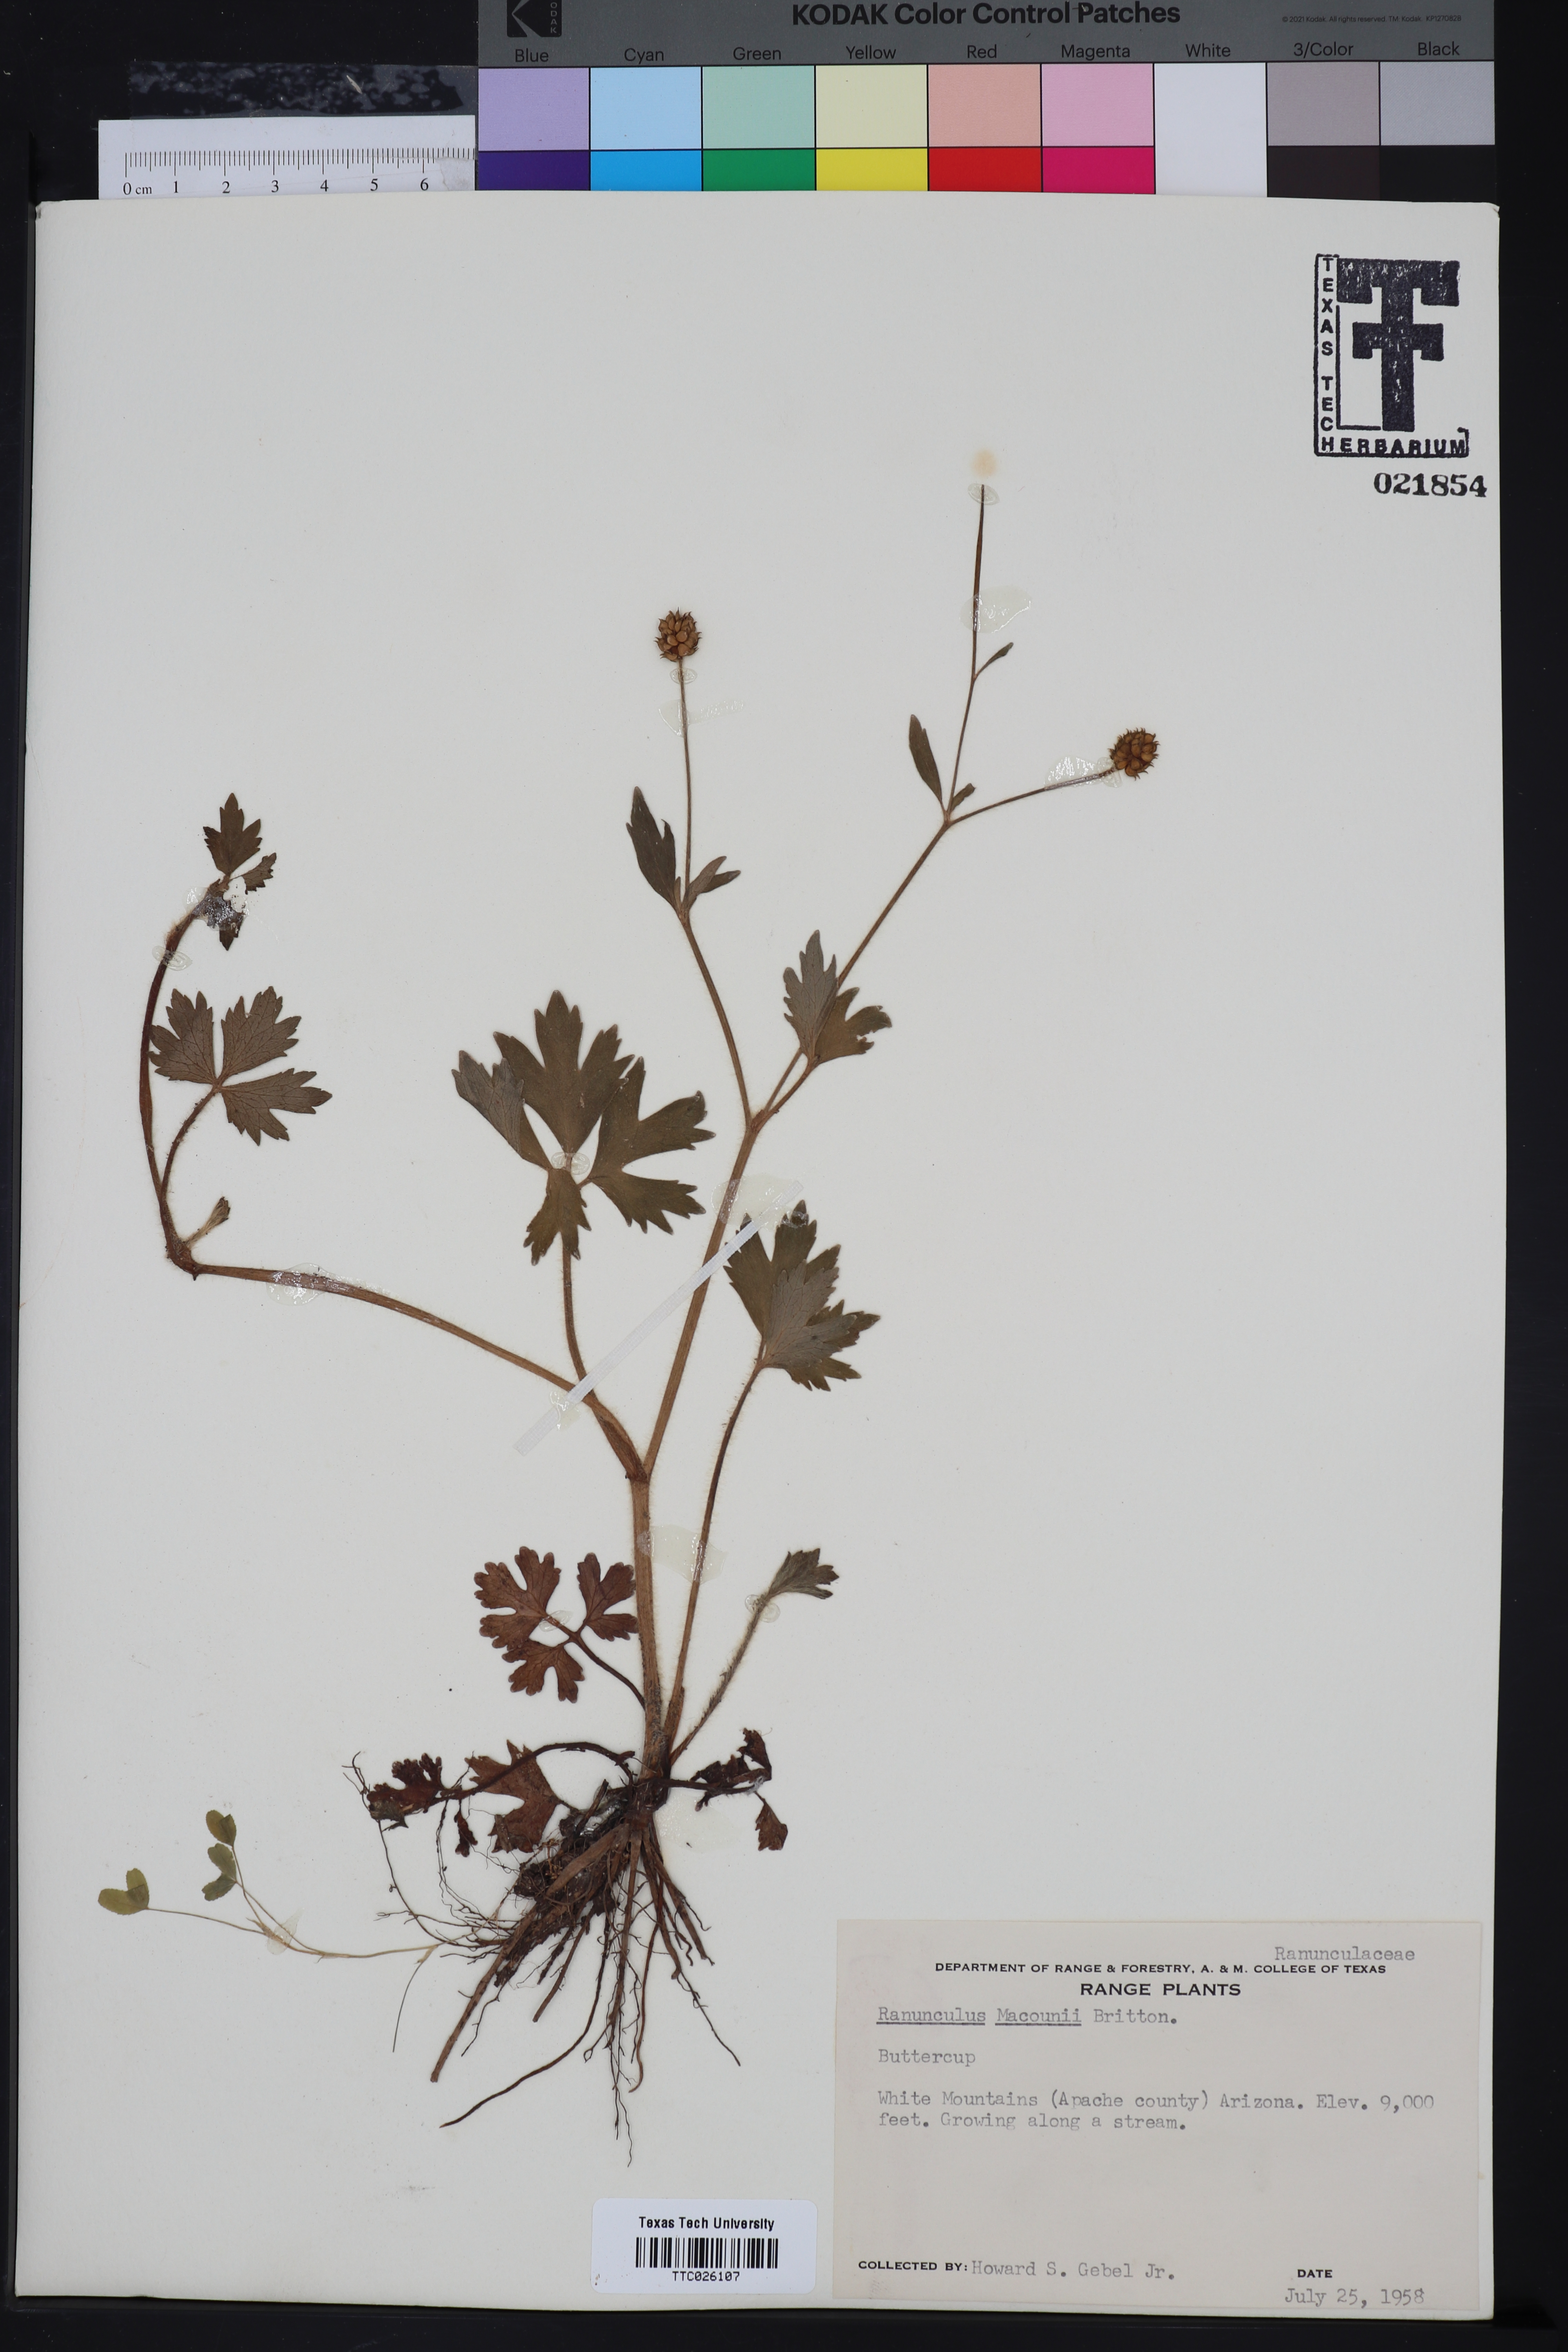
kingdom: Plantae
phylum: Tracheophyta
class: Magnoliopsida
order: Ranunculales
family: Ranunculaceae
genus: Ranunculus
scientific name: Ranunculus macounii
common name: Macoun's buttercup
